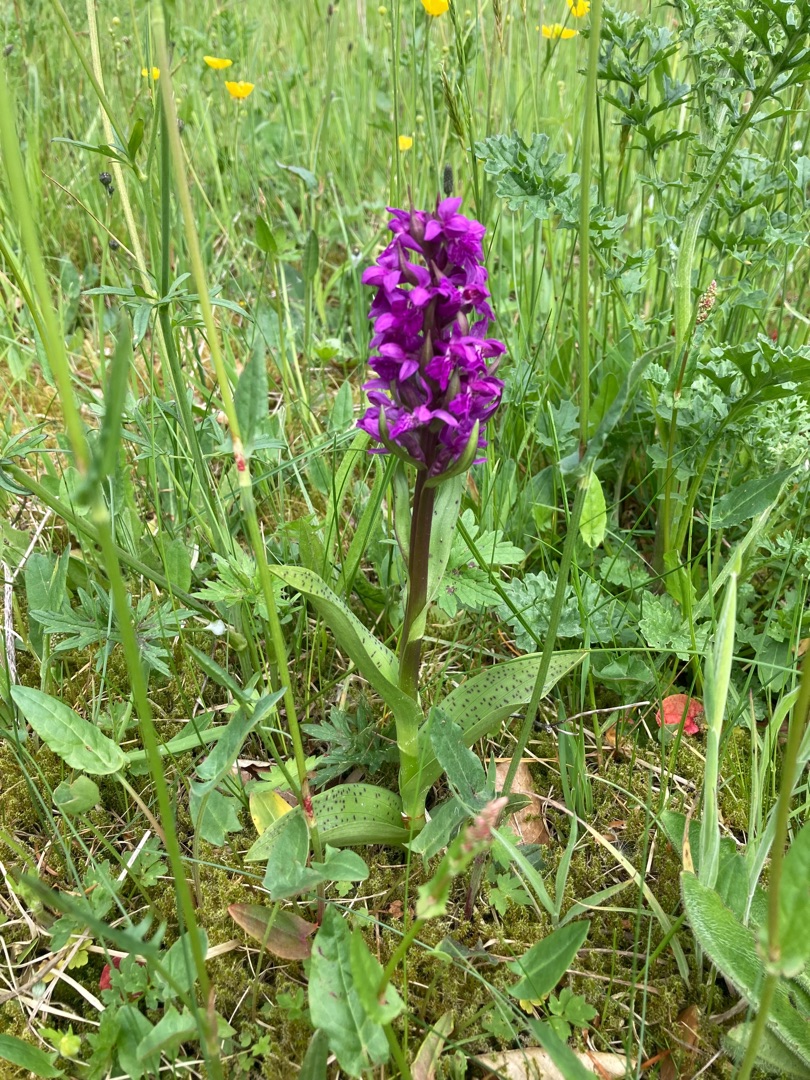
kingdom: Plantae
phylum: Tracheophyta
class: Liliopsida
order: Asparagales
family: Orchidaceae
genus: Dactylorhiza
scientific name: Dactylorhiza majalis
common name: Maj-gøgeurt
